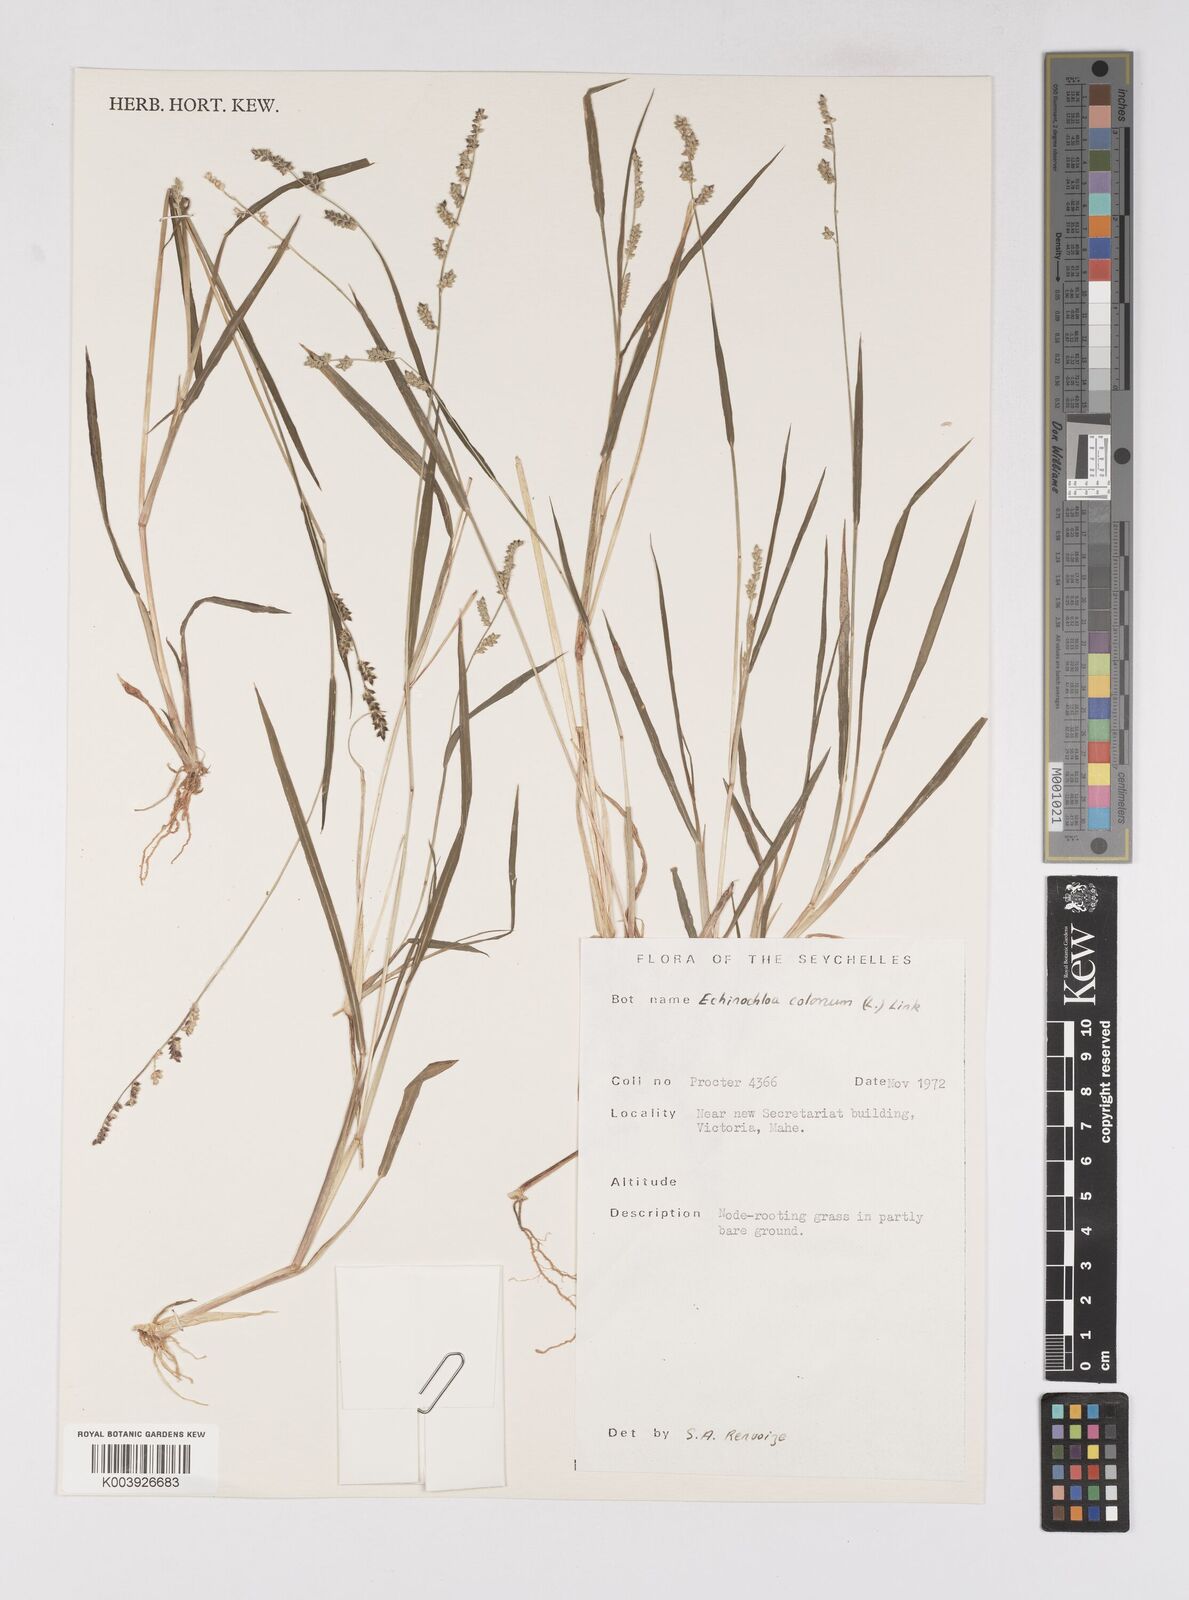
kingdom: Plantae
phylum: Tracheophyta
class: Liliopsida
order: Poales
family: Poaceae
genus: Echinochloa
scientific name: Echinochloa colonum
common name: Jungle rice
